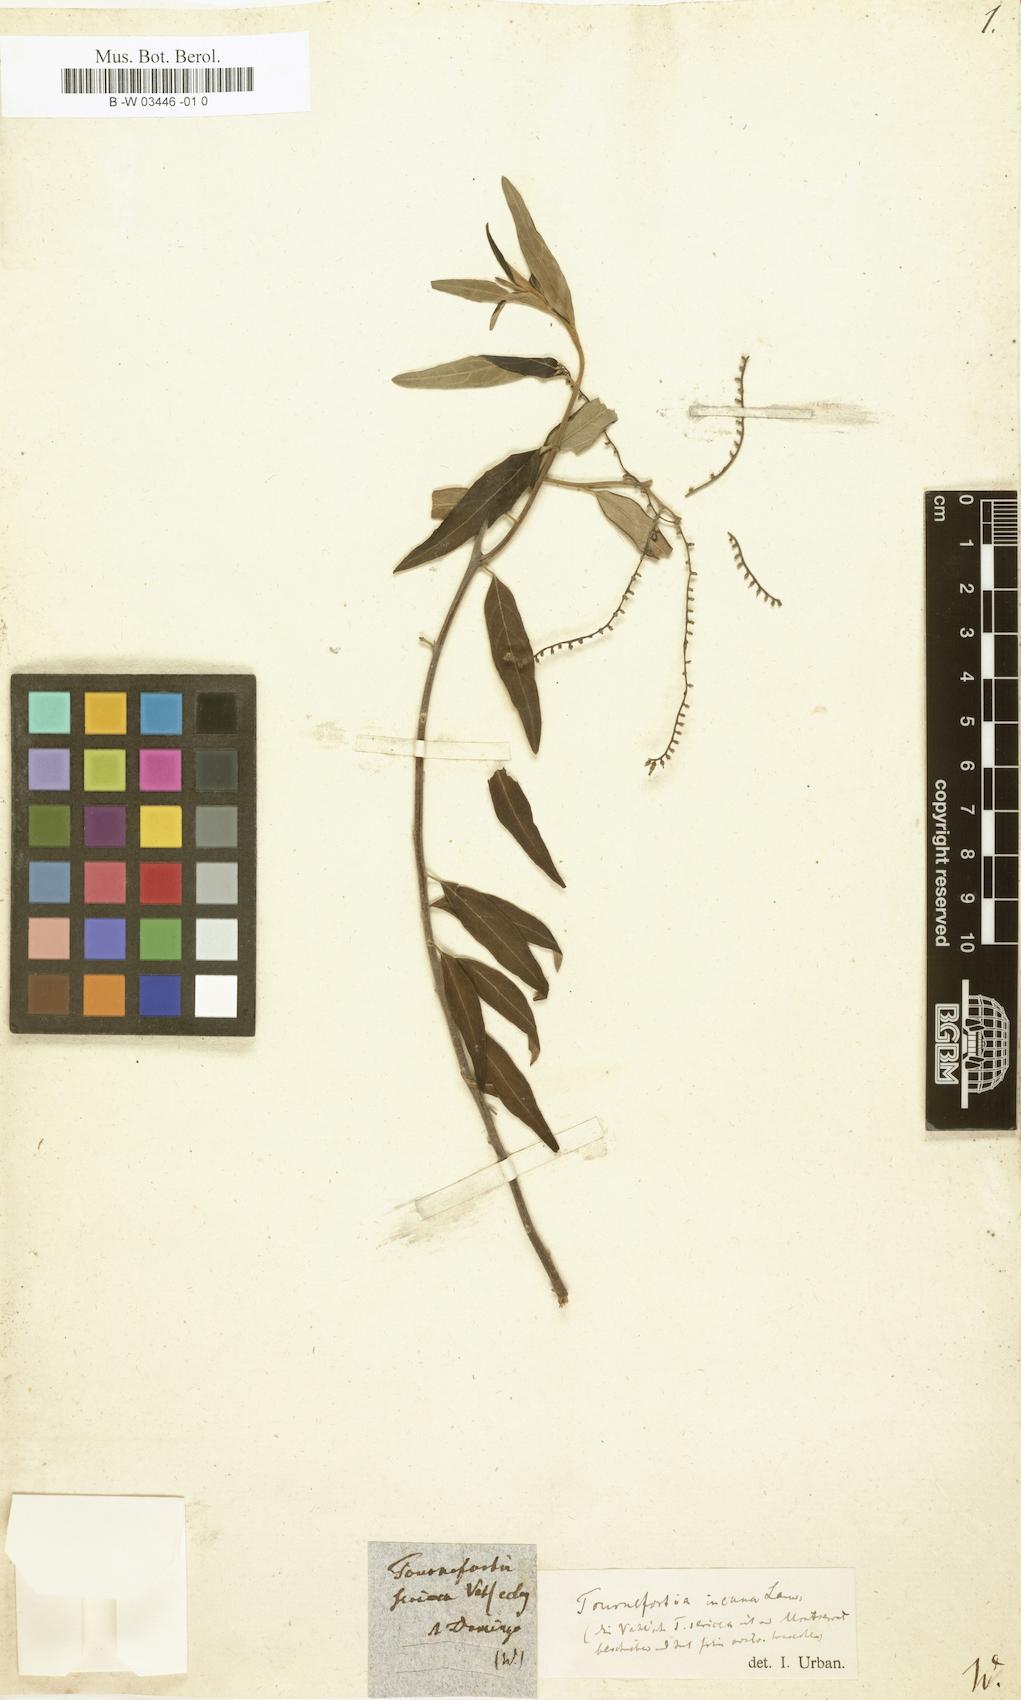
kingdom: Plantae
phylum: Tracheophyta
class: Magnoliopsida
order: Boraginales
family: Heliotropiaceae
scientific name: Heliotropiaceae
